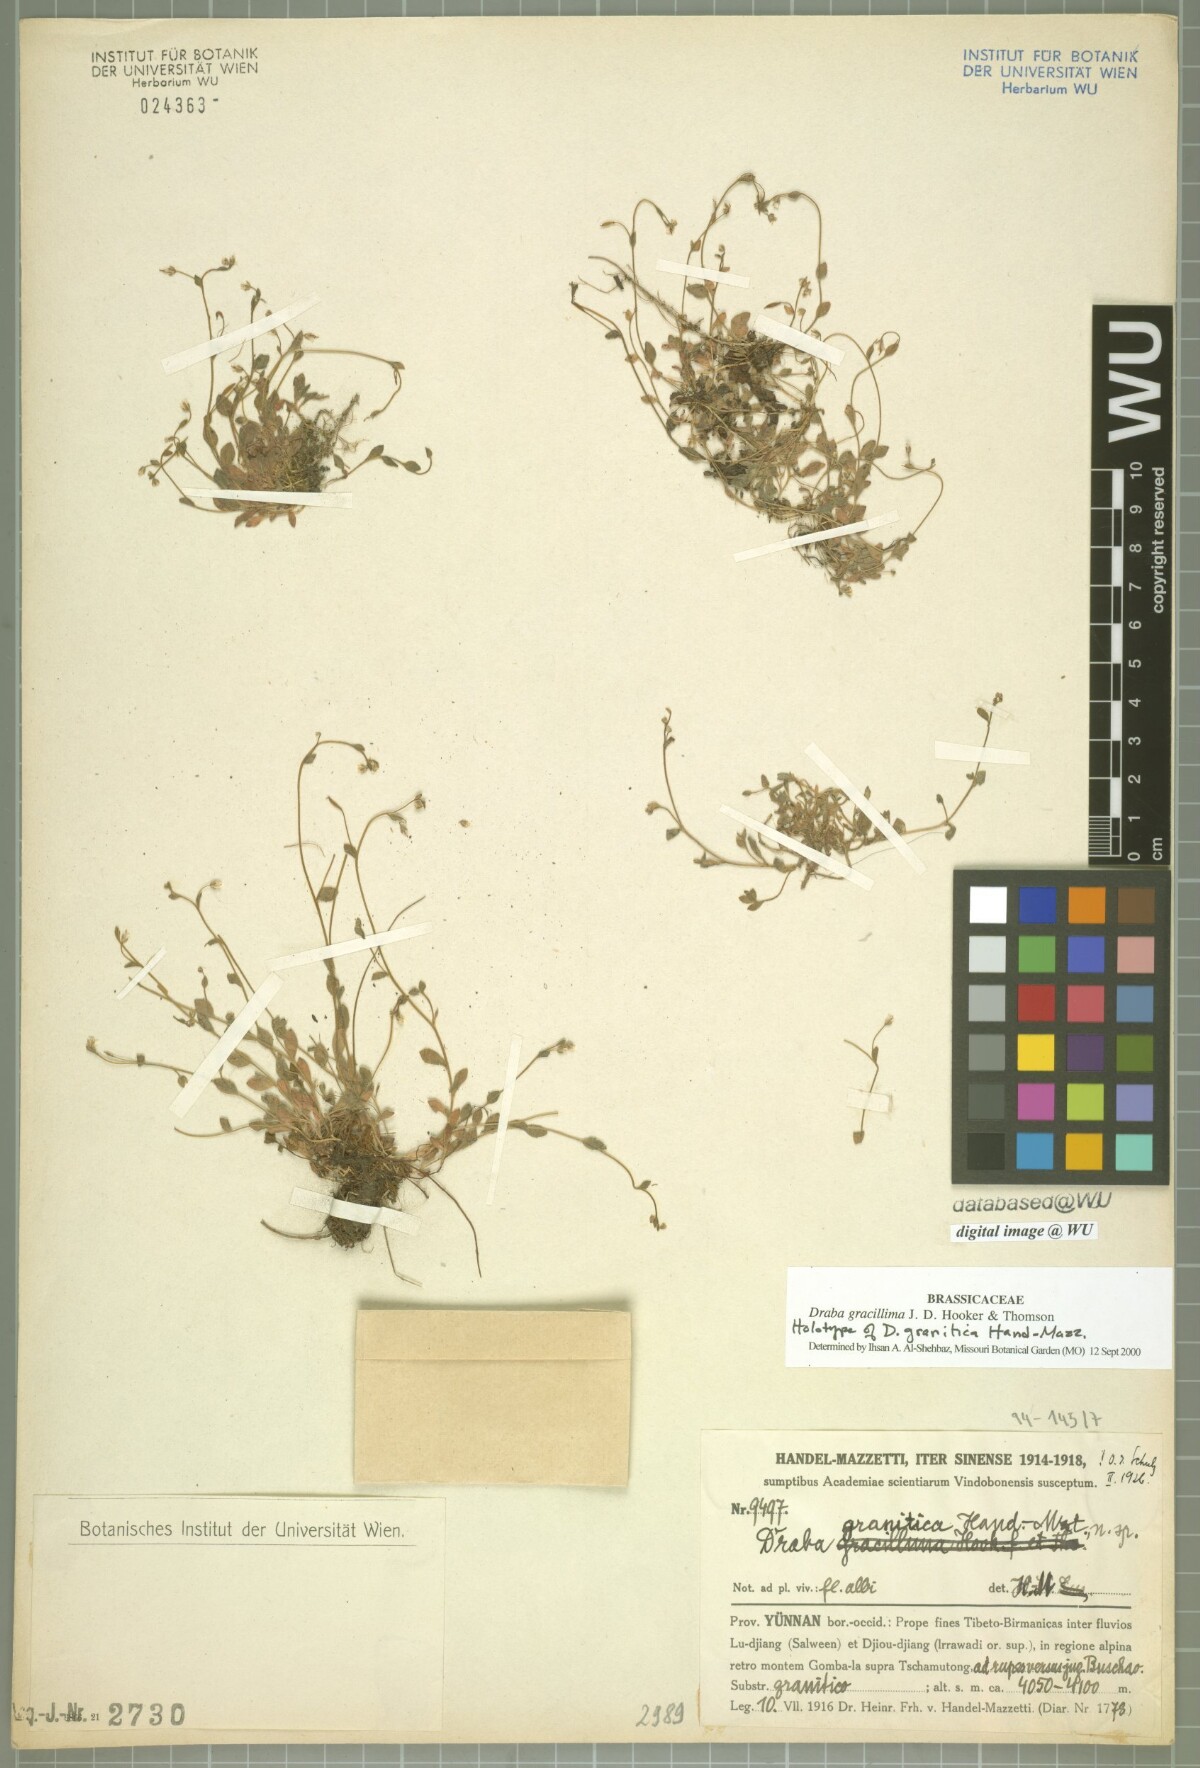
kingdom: Plantae
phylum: Tracheophyta
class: Magnoliopsida
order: Brassicales
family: Brassicaceae
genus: Draba
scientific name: Draba gracillima
